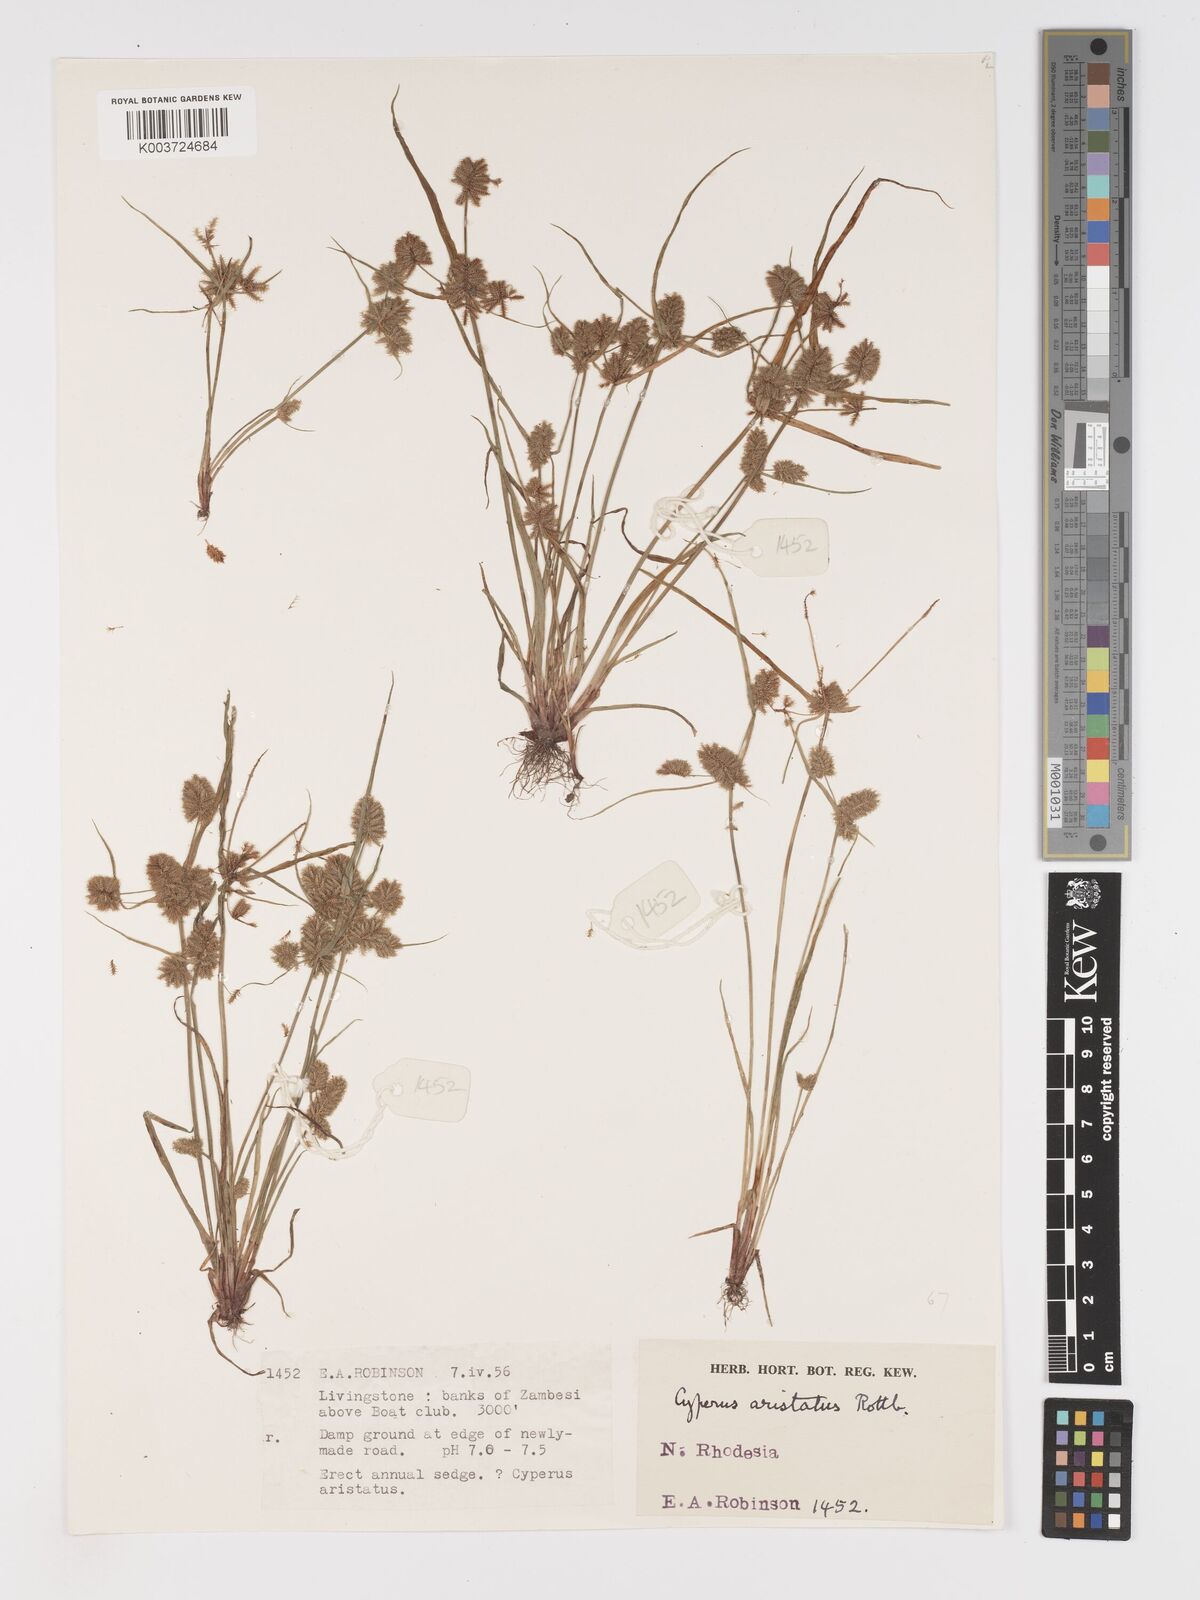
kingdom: Plantae
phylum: Tracheophyta
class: Liliopsida
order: Poales
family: Cyperaceae
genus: Cyperus
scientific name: Cyperus squarrosus
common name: Awned cyperus
